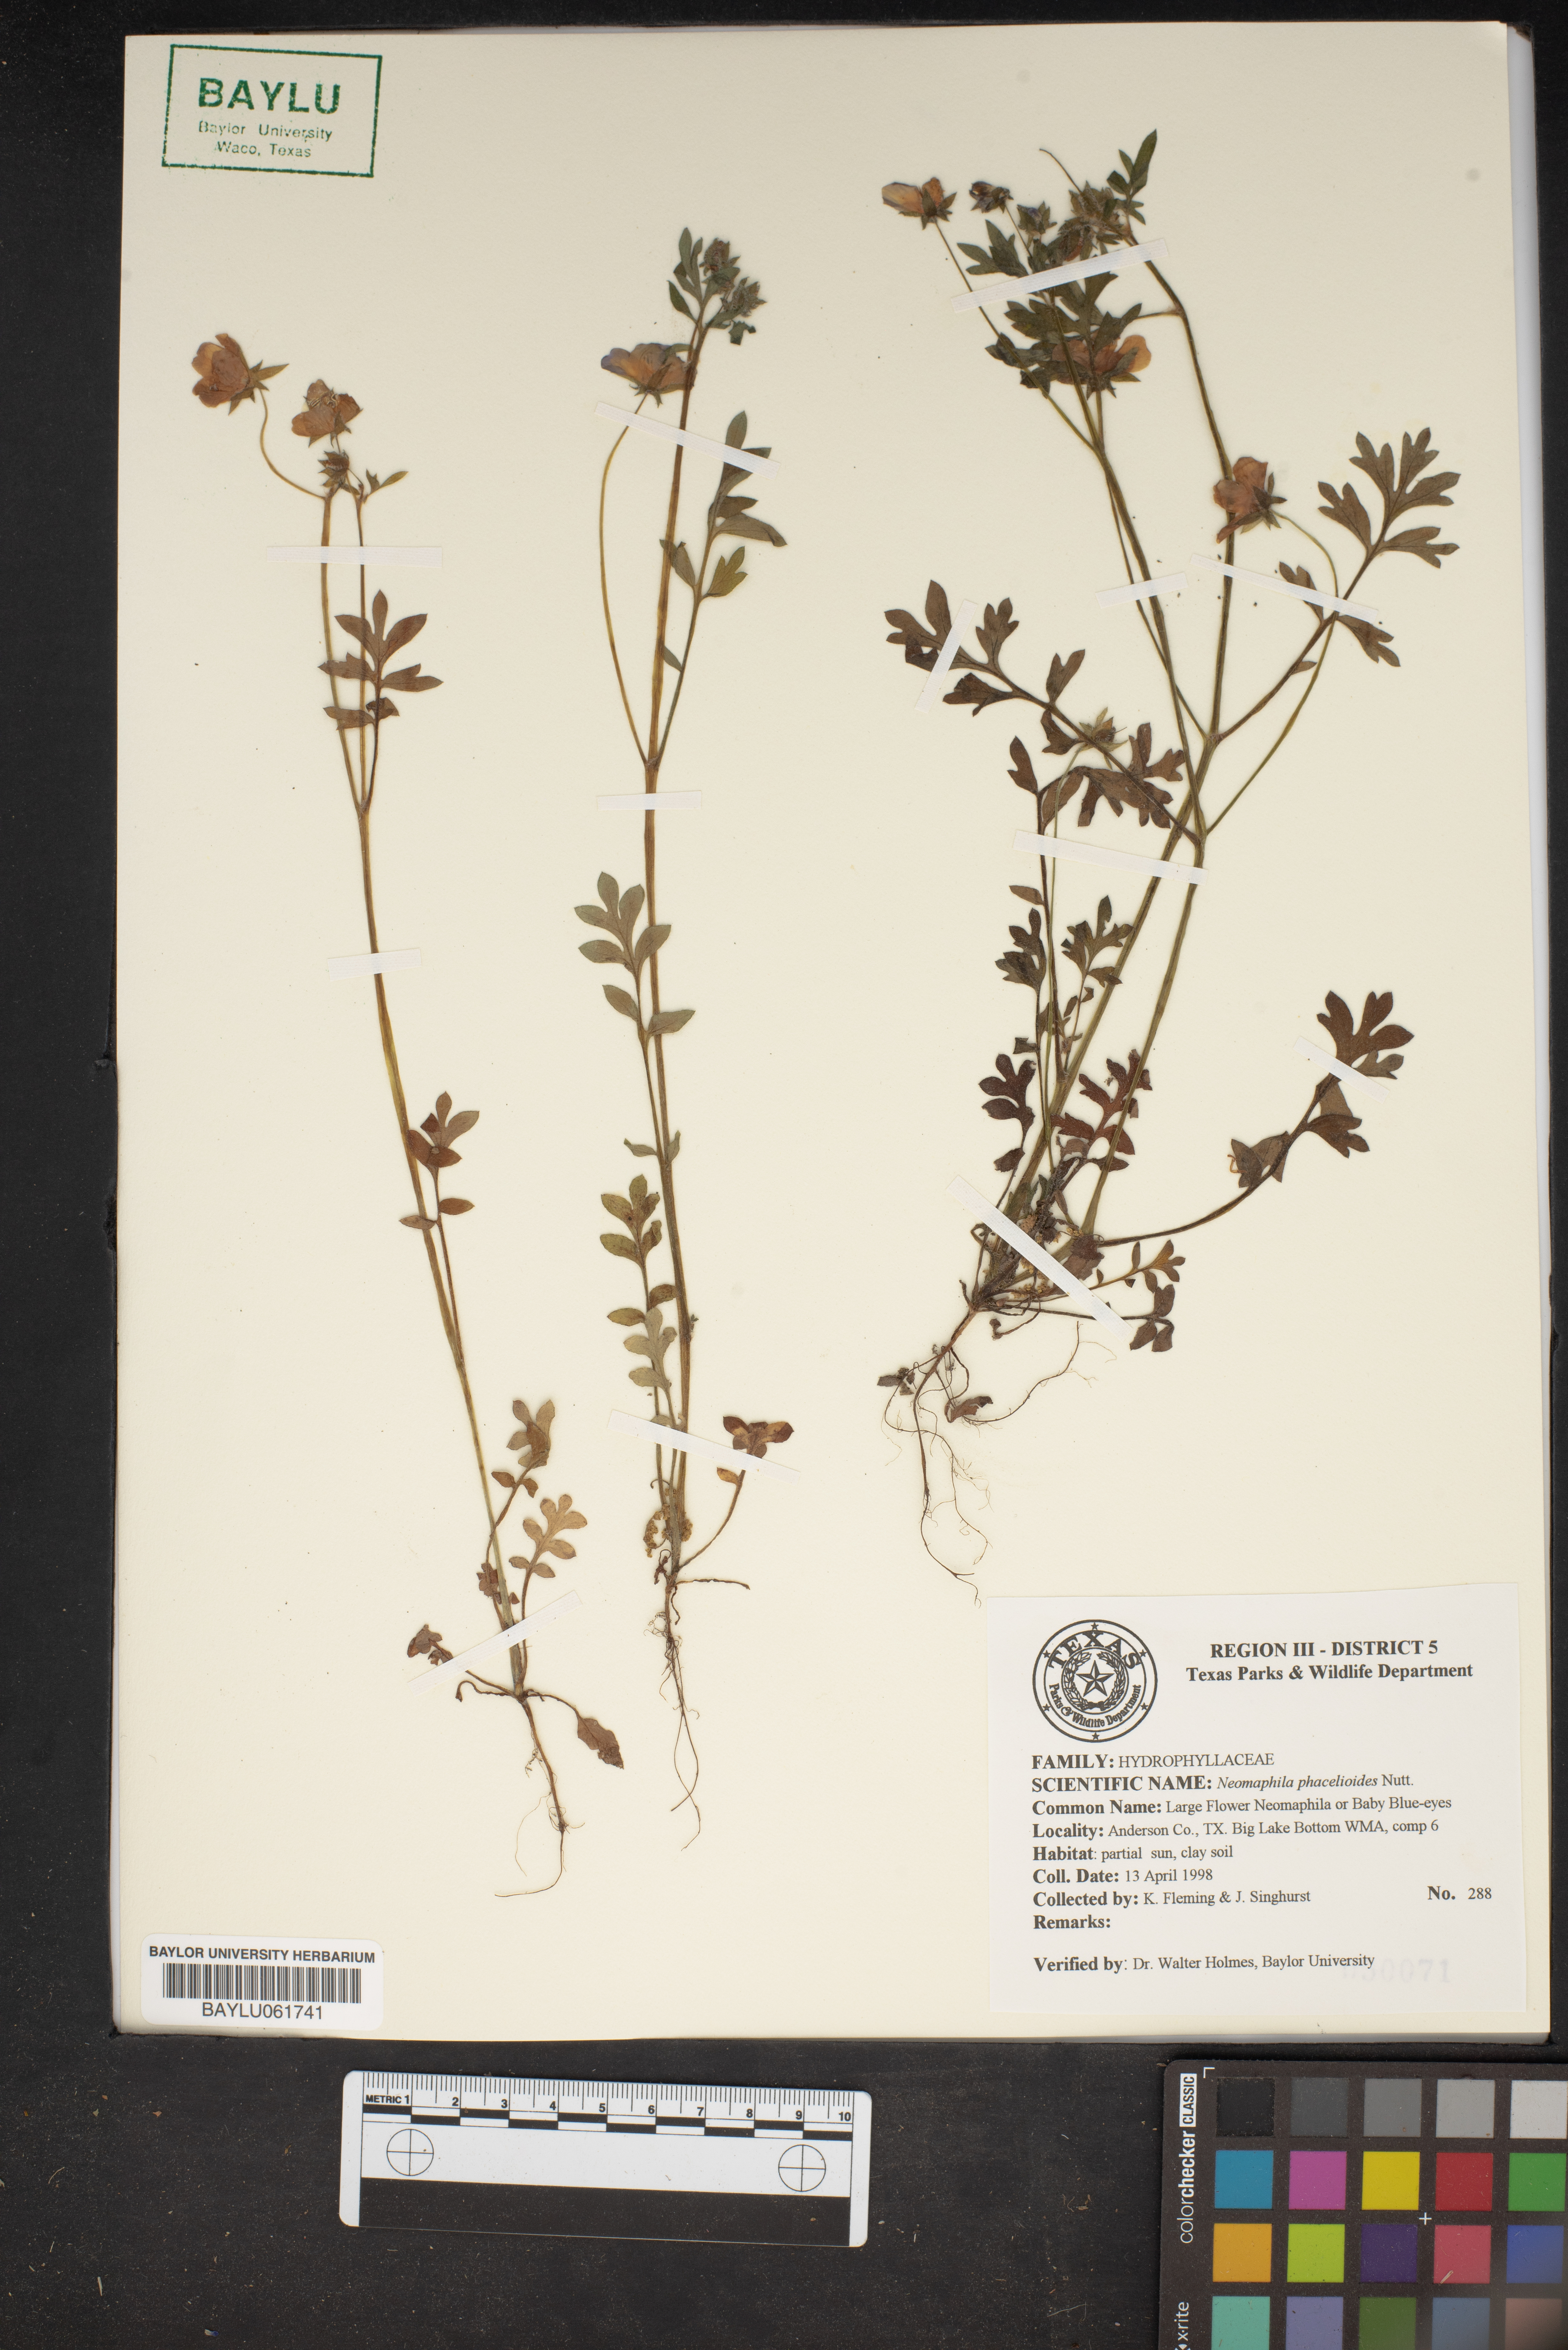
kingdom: Plantae
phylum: Tracheophyta
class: Magnoliopsida
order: Boraginales
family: Hydrophyllaceae
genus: Nemophila
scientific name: Nemophila phacelioides
